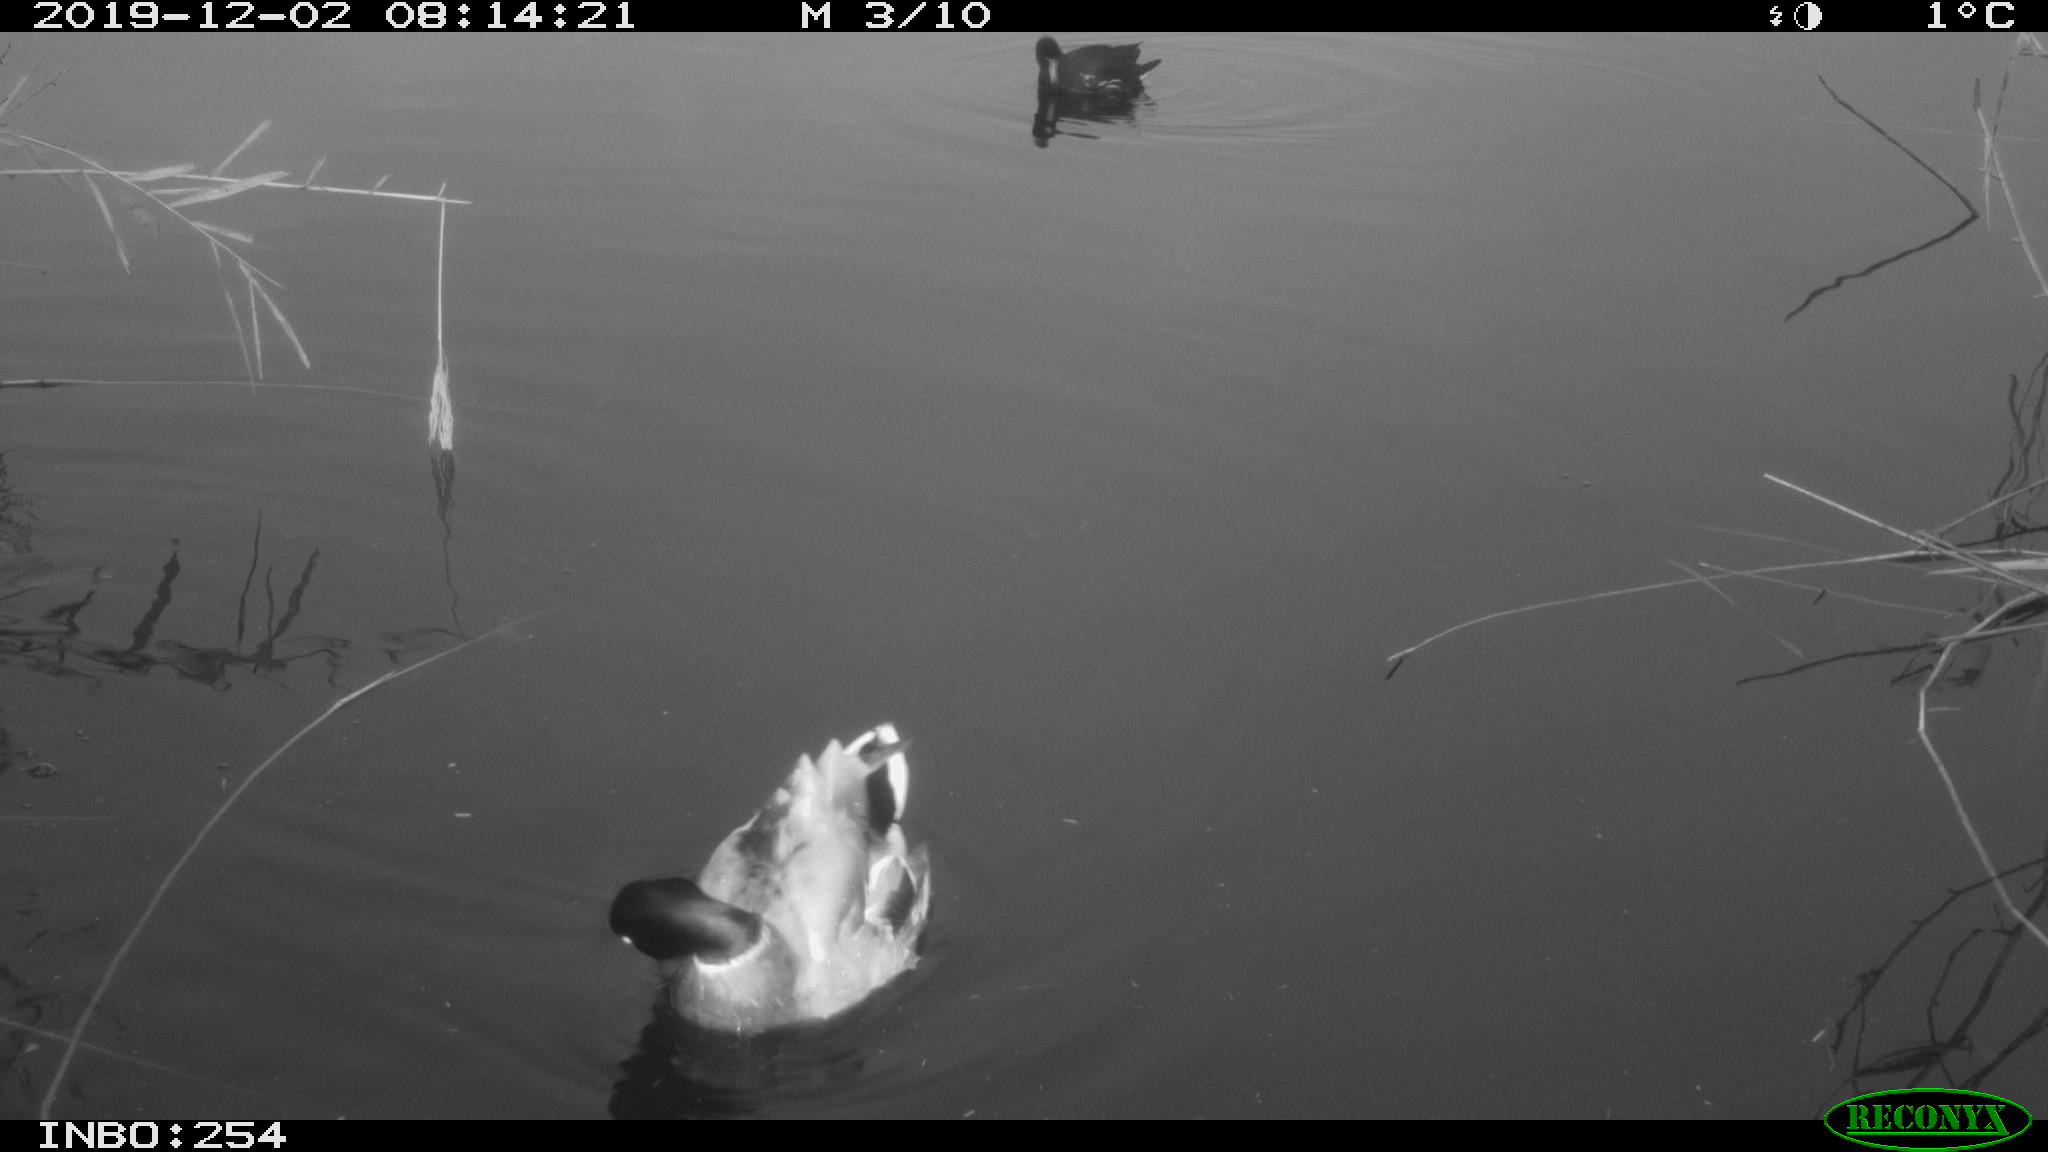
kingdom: Animalia
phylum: Chordata
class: Aves
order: Anseriformes
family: Anatidae
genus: Anas
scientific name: Anas platyrhynchos
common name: Mallard
